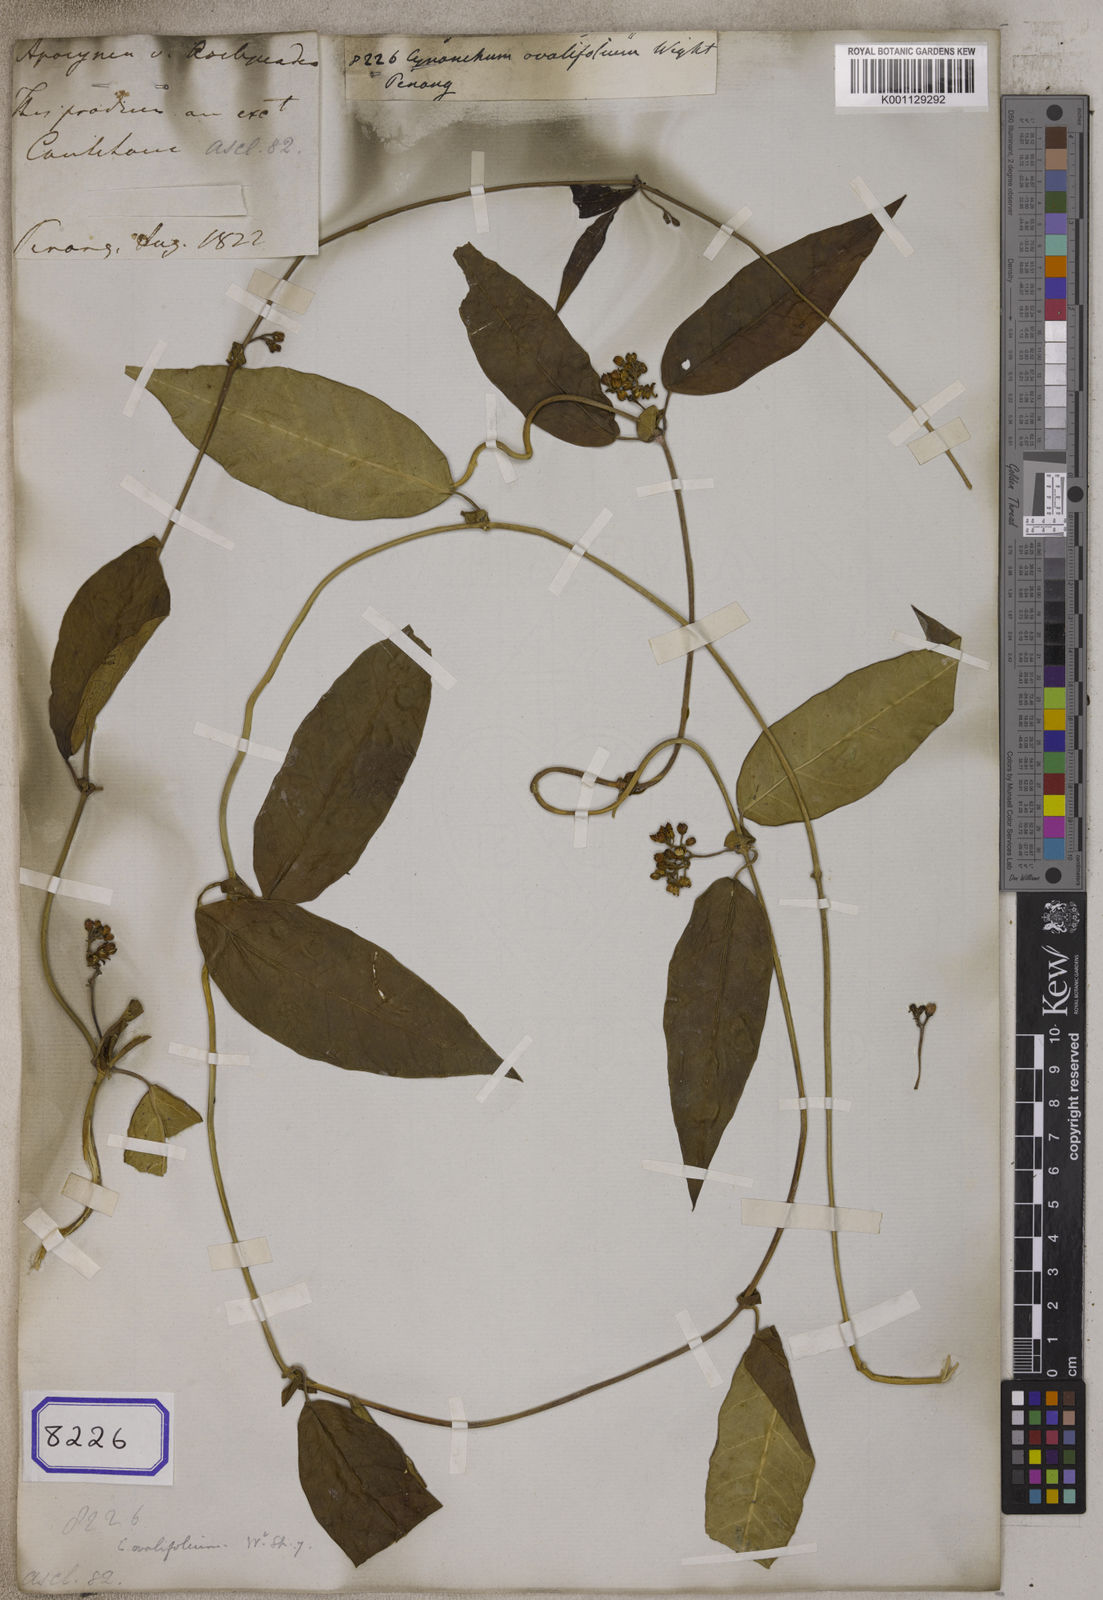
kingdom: Plantae
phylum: Tracheophyta
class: Magnoliopsida
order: Gentianales
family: Apocynaceae
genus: Cynanchum
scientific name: Cynanchum ovalifolium
